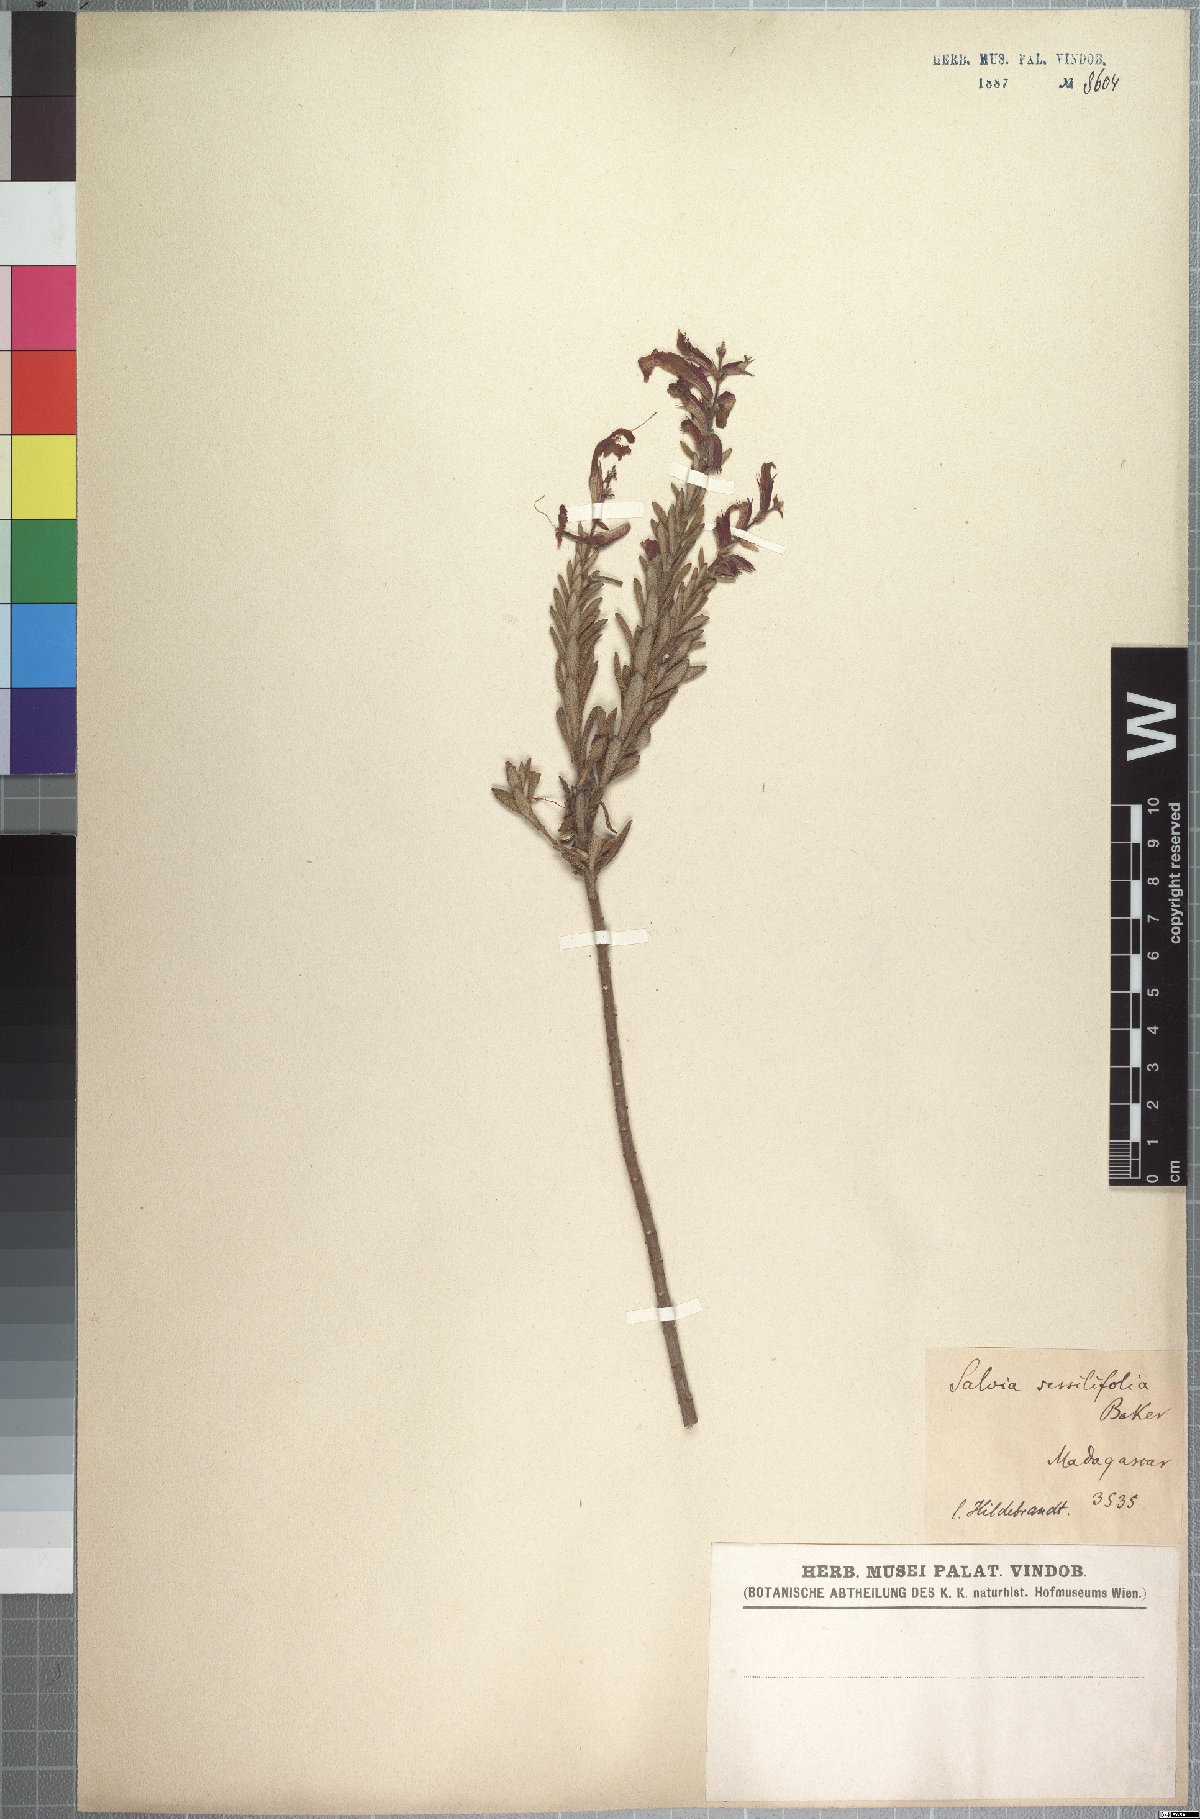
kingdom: Plantae
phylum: Tracheophyta
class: Magnoliopsida
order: Lamiales
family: Lamiaceae
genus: Salvia
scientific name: Salvia sessilifolia
